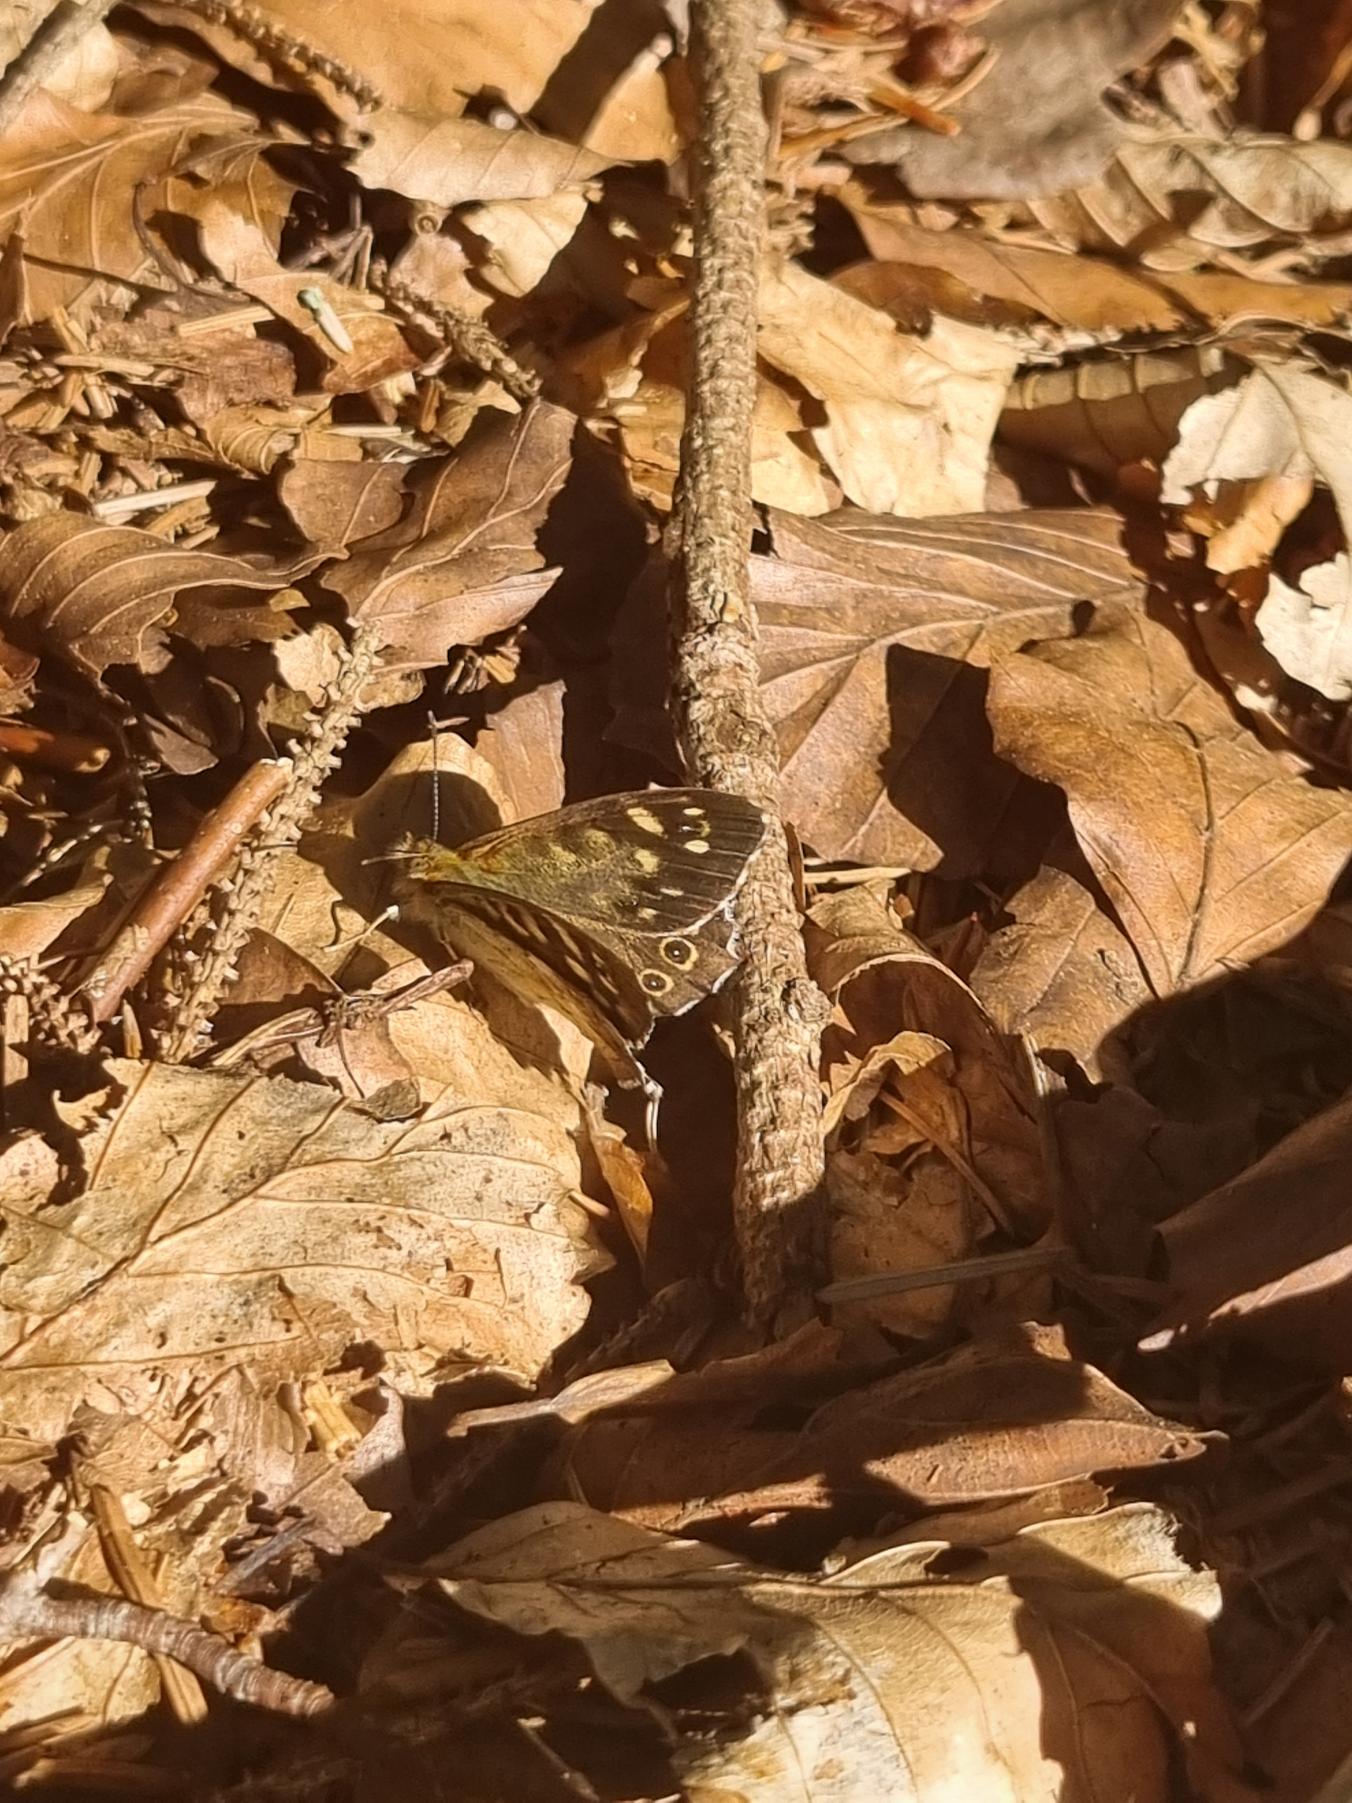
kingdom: Animalia
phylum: Arthropoda
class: Insecta
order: Lepidoptera
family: Nymphalidae
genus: Pararge
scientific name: Pararge aegeria
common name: Skovrandøje
